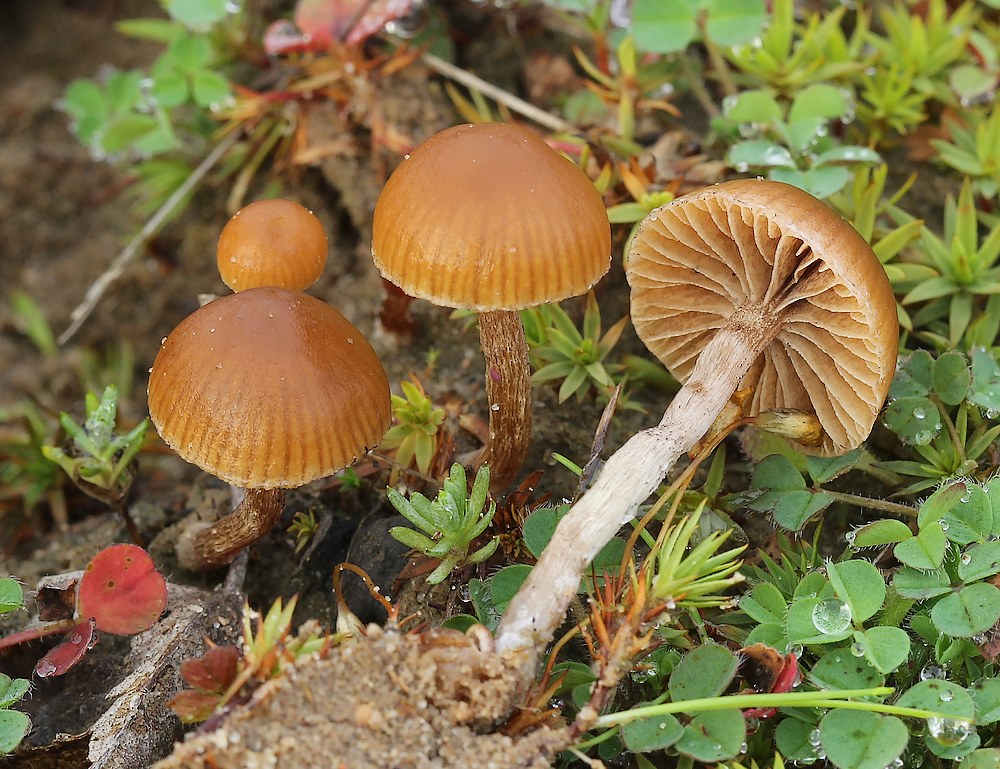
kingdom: Fungi
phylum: Basidiomycota
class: Agaricomycetes
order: Agaricales
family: Strophariaceae
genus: Deconica
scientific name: Deconica montana
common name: rødbrun stråhat
